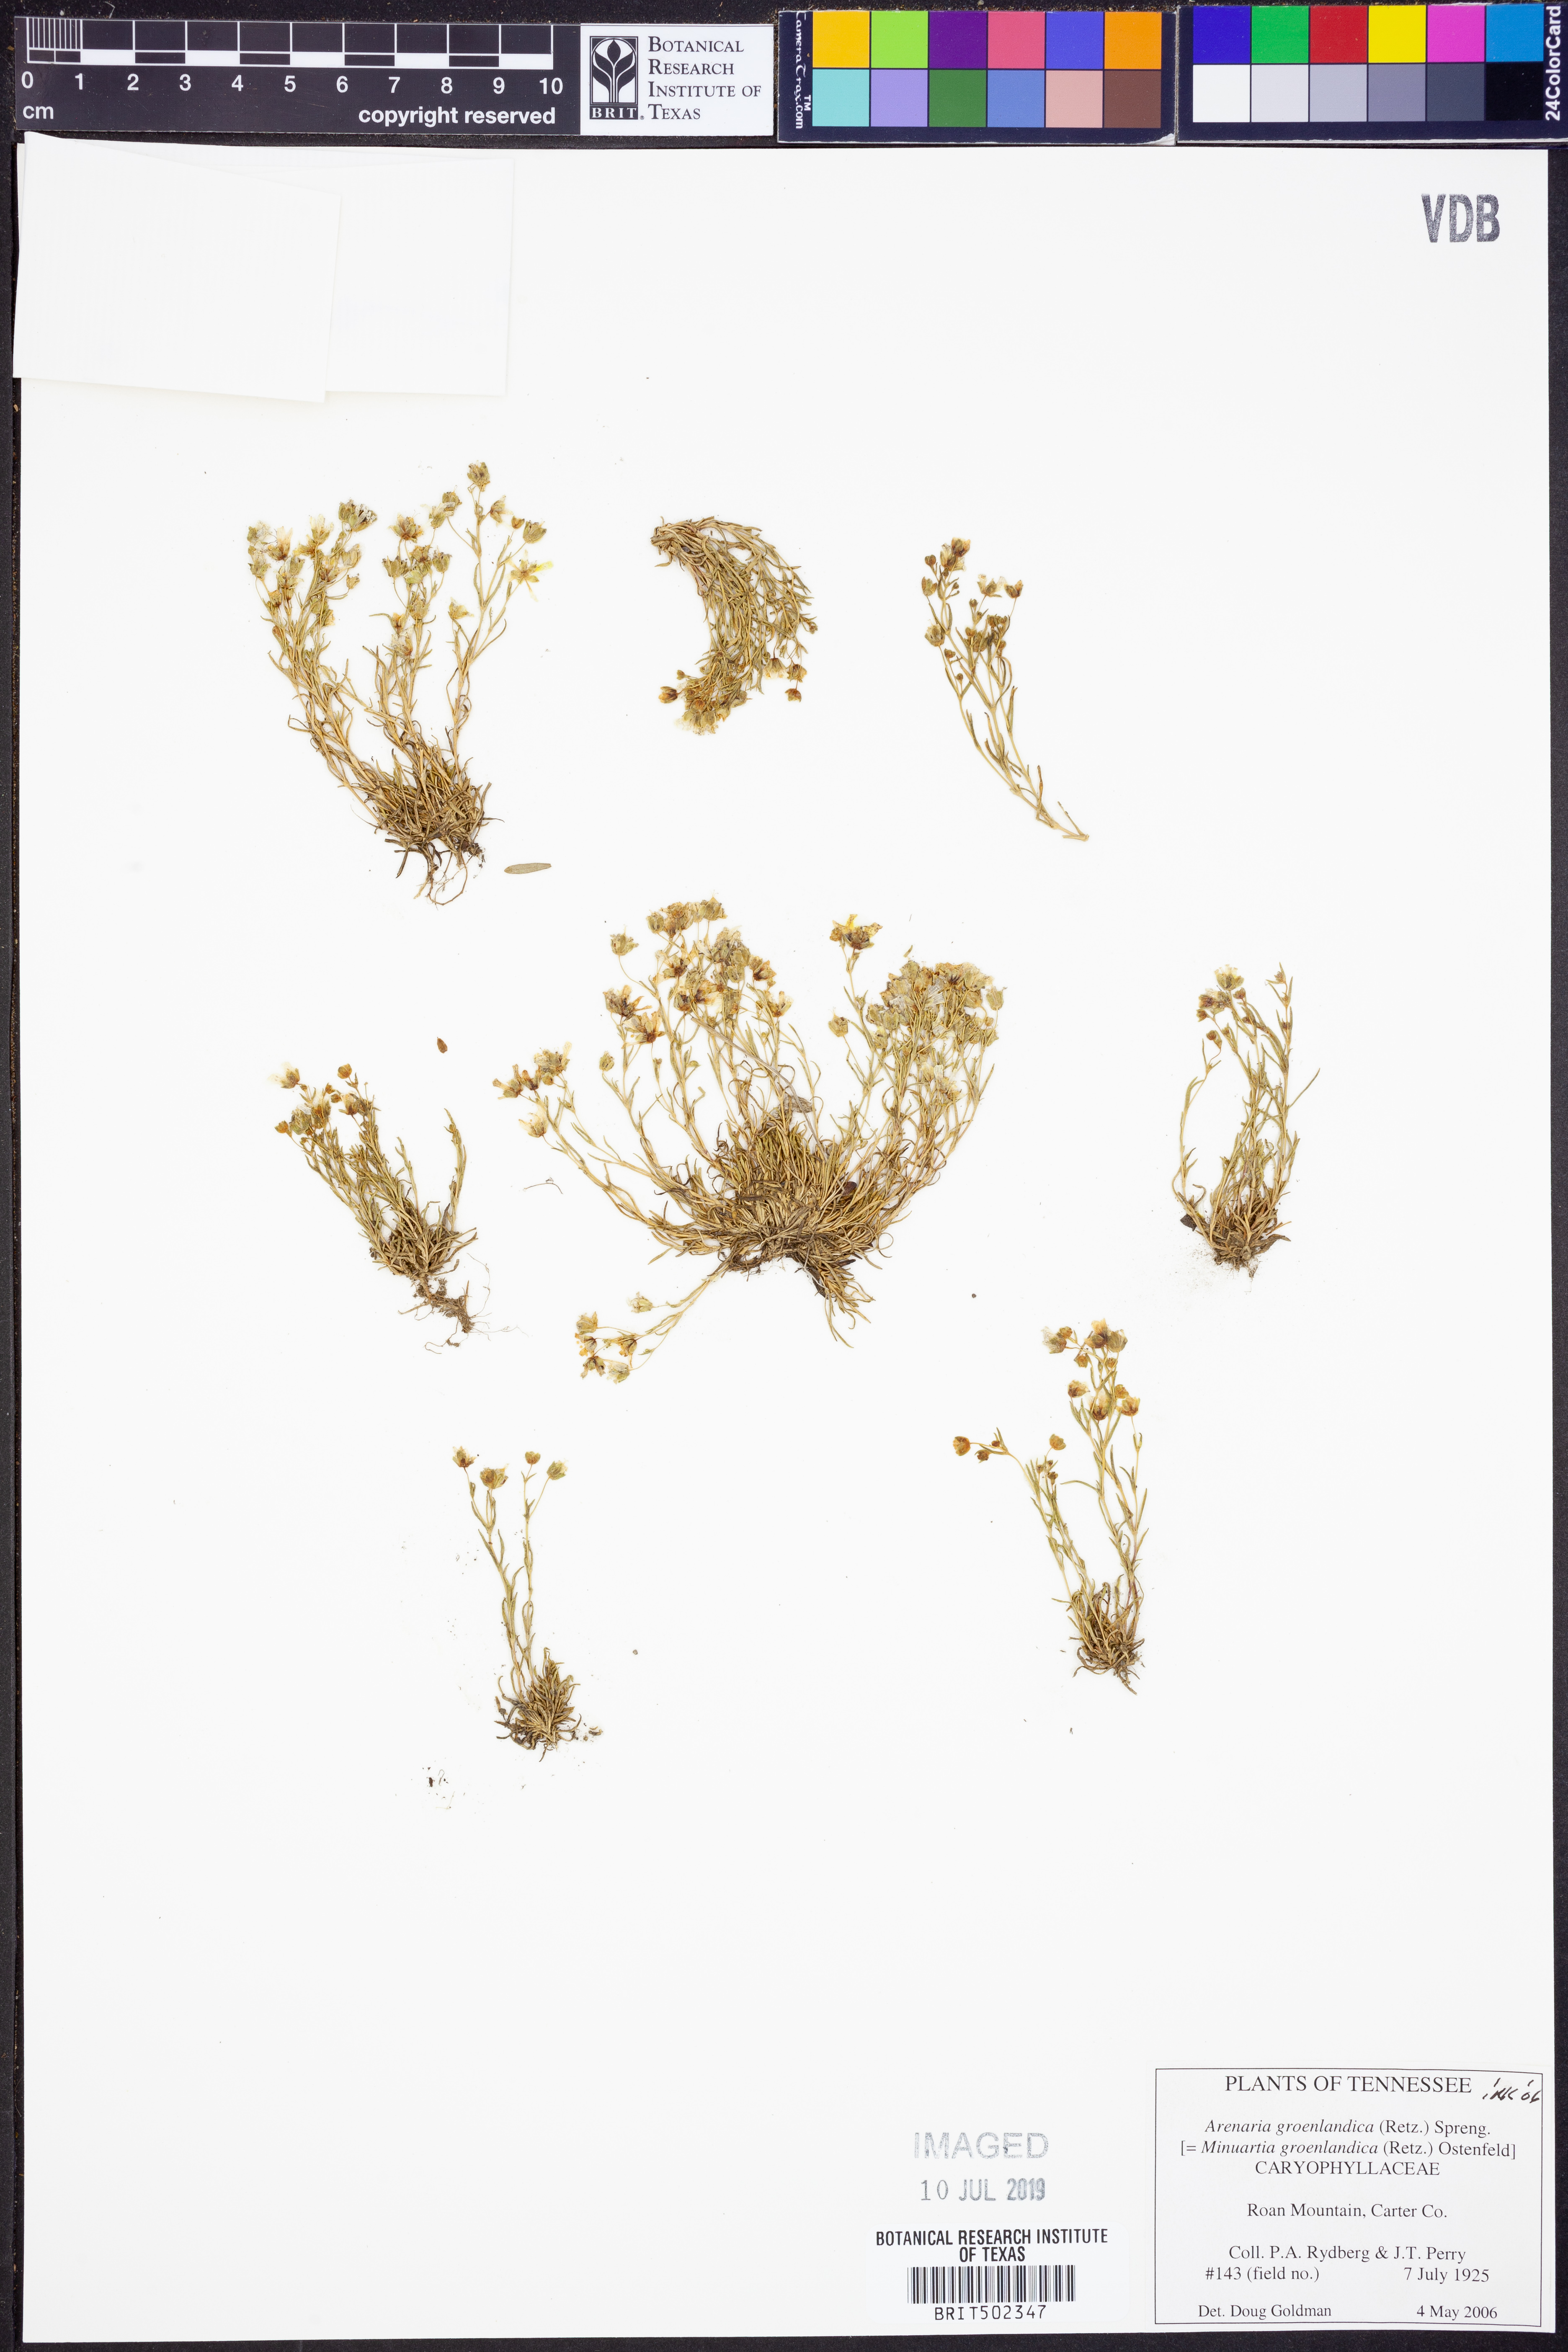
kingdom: Plantae
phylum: Tracheophyta
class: Magnoliopsida
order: Caryophyllales
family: Caryophyllaceae
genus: Geocarpon
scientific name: Geocarpon groenlandicum
